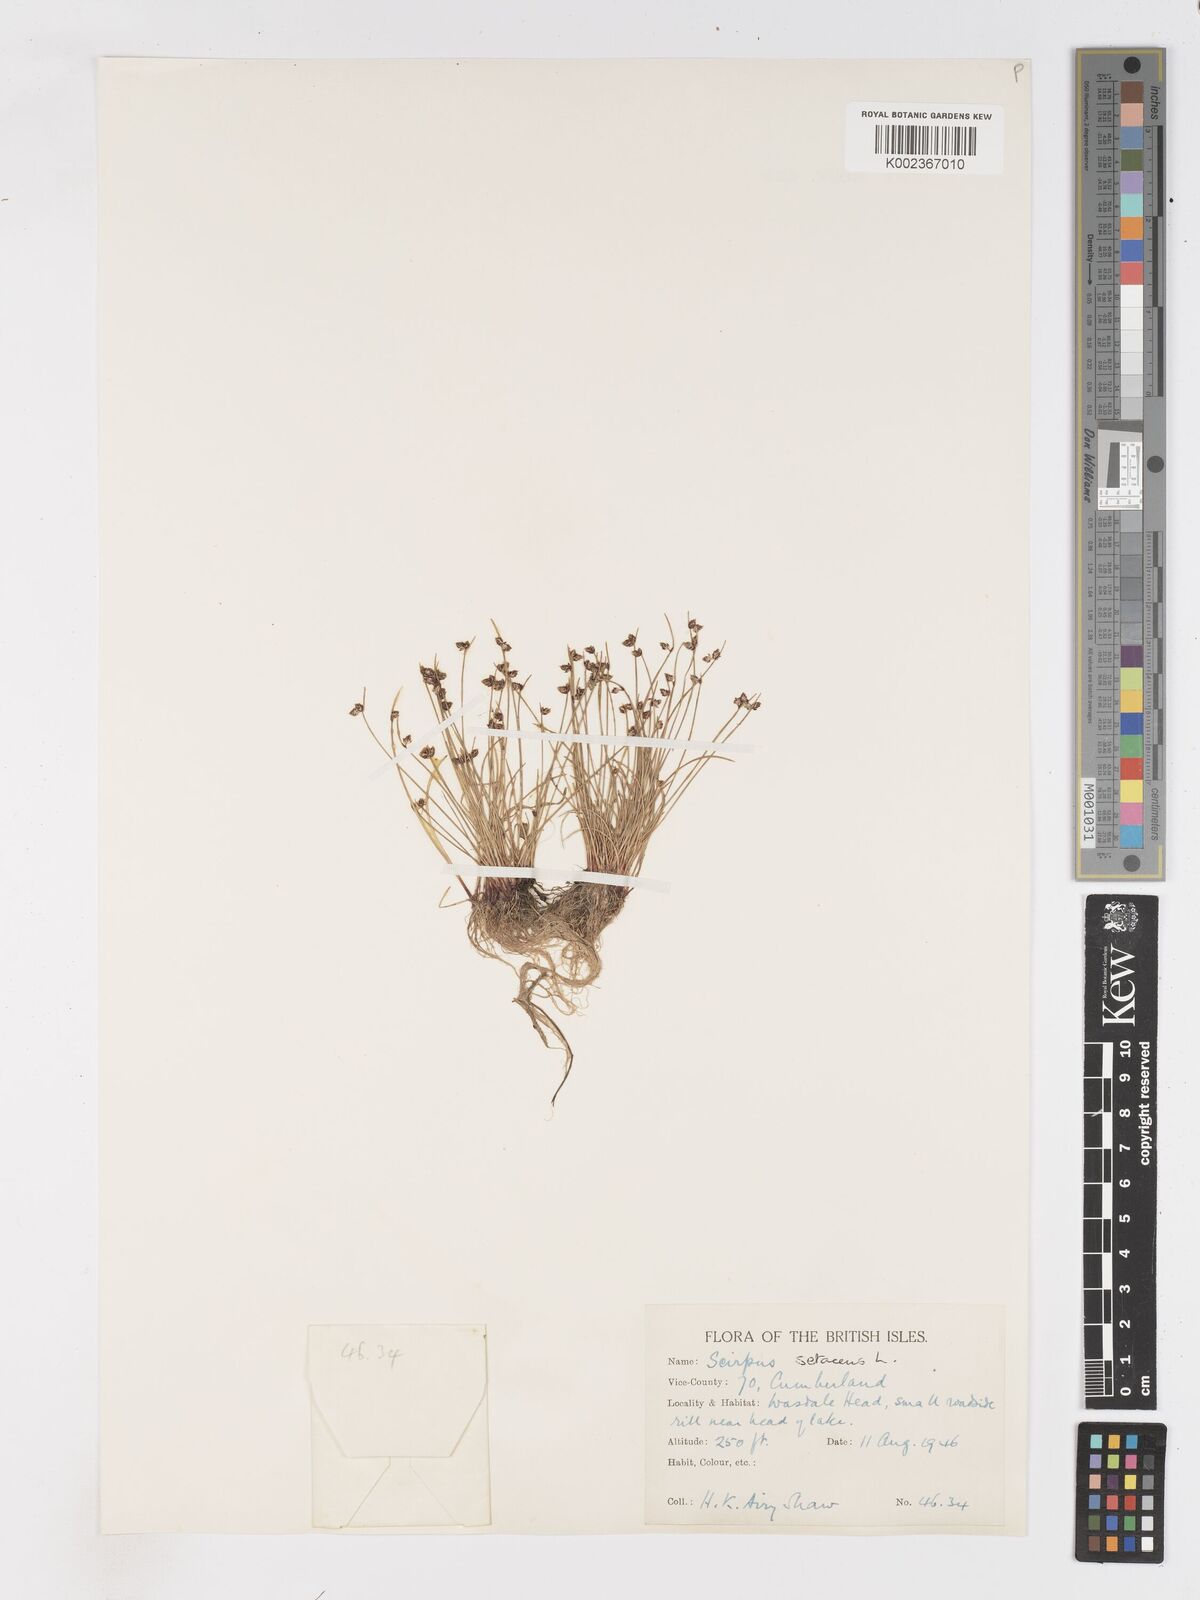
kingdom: Plantae
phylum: Tracheophyta
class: Liliopsida
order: Poales
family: Cyperaceae
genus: Isolepis
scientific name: Isolepis setacea
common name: Bristle club-rush
